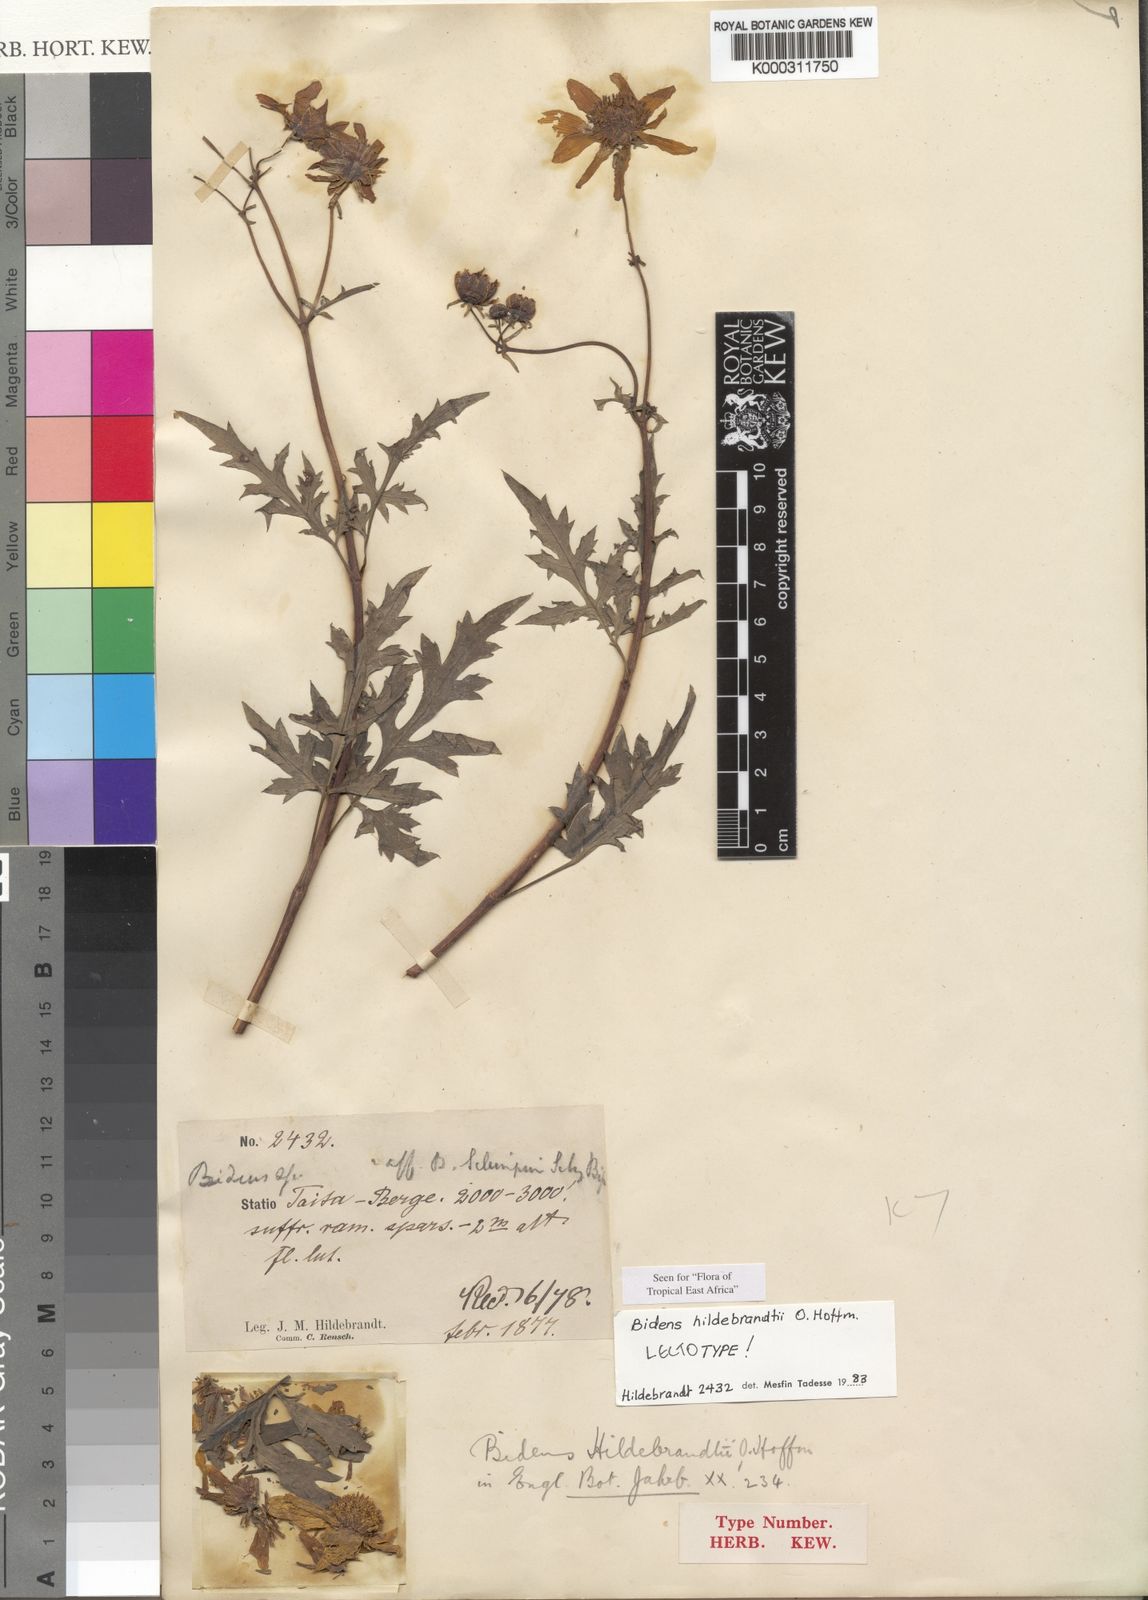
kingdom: Plantae
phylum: Tracheophyta
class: Magnoliopsida
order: Asterales
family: Asteraceae
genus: Bidens
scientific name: Bidens hildebrandtii
